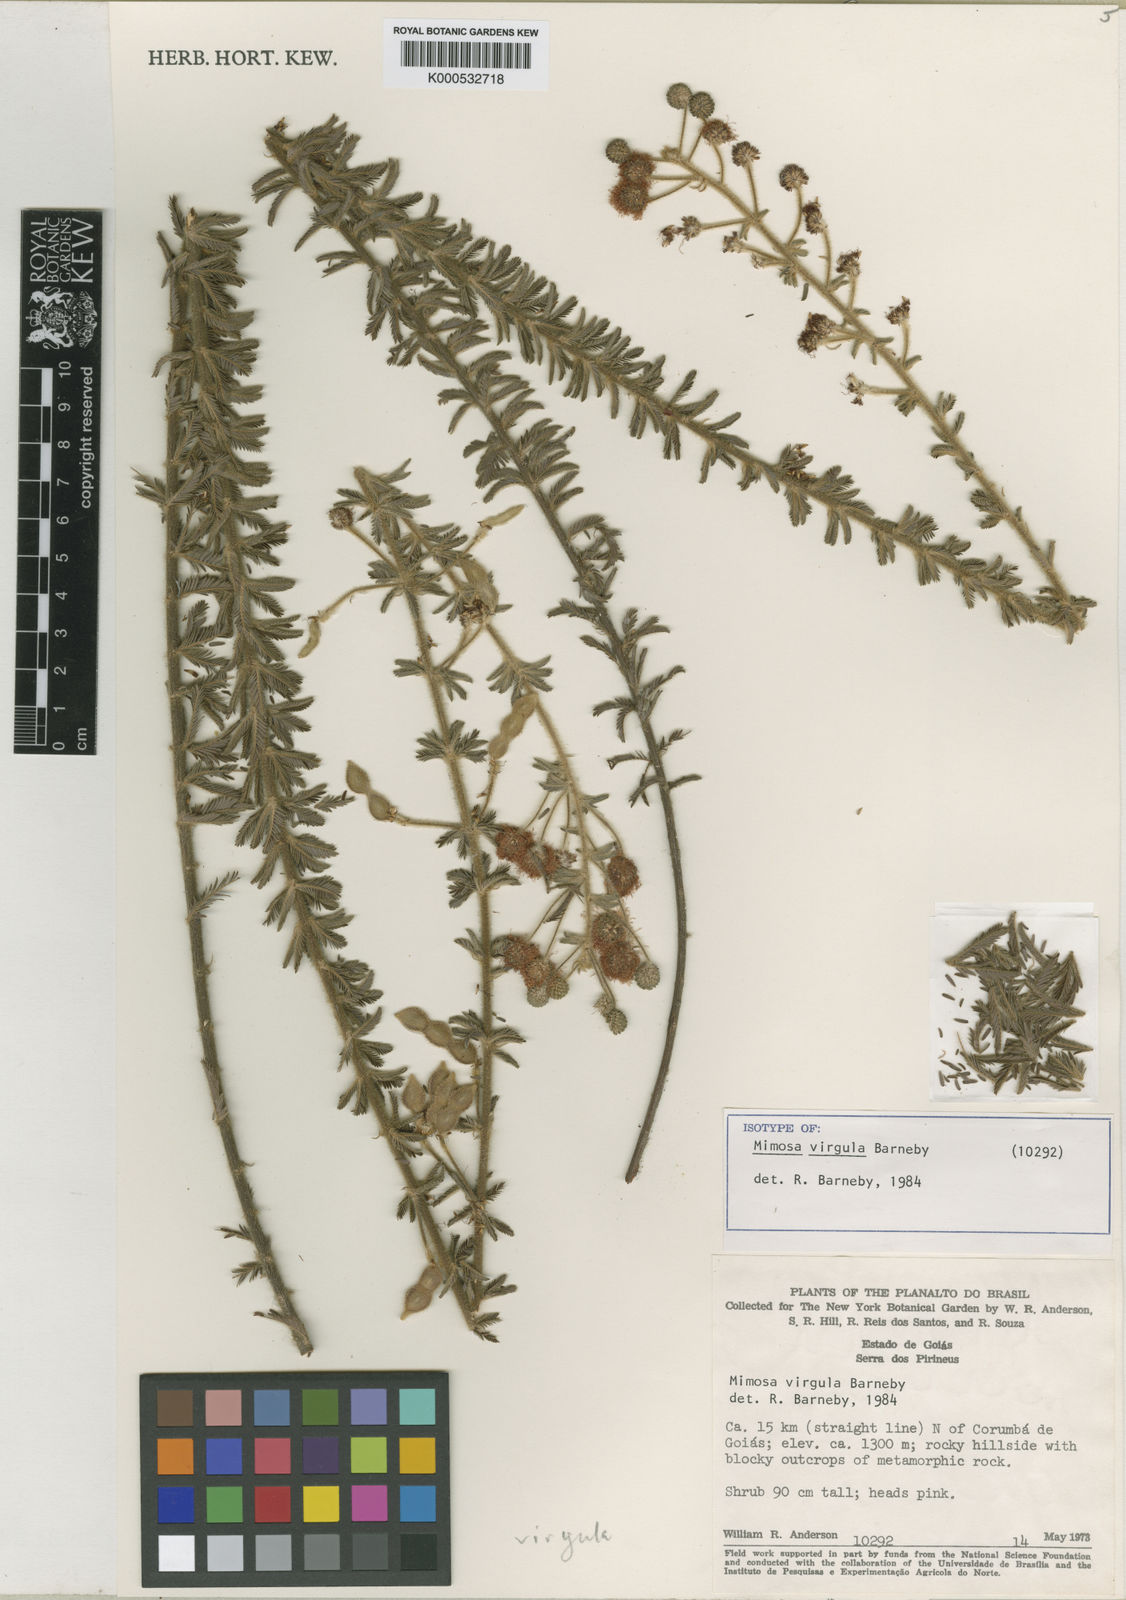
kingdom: Plantae
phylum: Tracheophyta
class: Magnoliopsida
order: Fabales
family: Fabaceae
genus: Mimosa
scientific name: Mimosa virgula
